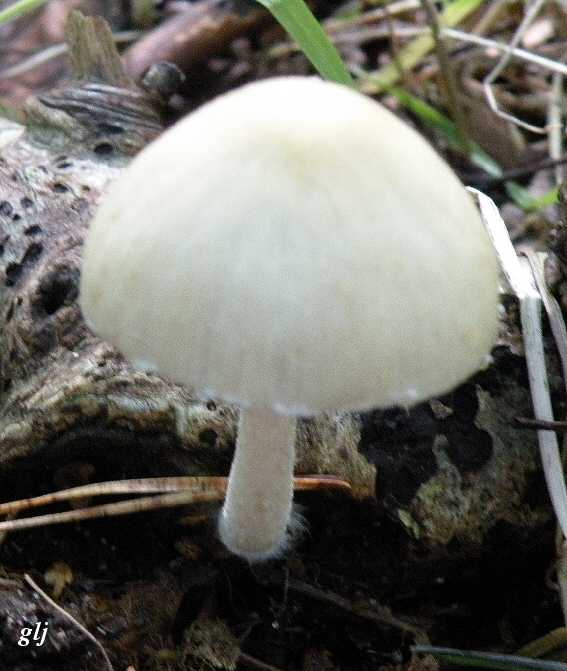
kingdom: Fungi
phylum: Basidiomycota
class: Agaricomycetes
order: Agaricales
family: Psathyrellaceae
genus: Candolleomyces
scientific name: Candolleomyces candolleanus
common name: Candolles mørkhat
